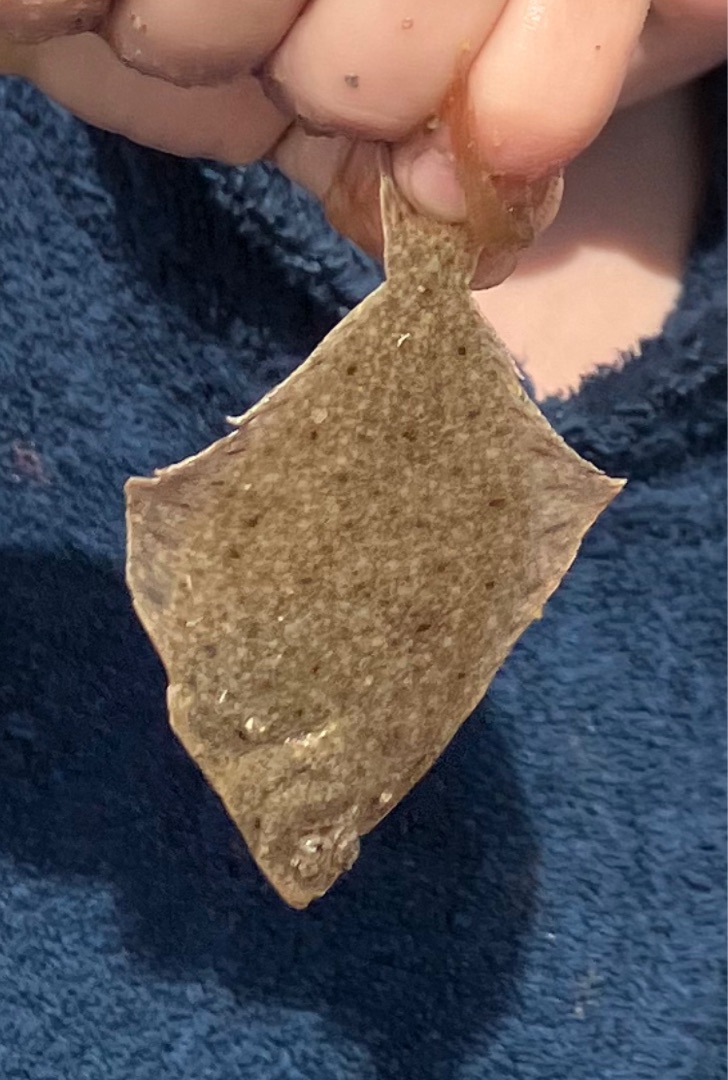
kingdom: Animalia
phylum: Chordata
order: Pleuronectiformes
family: Pleuronectidae
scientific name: Pleuronectidae
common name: Rødspættefamilien
